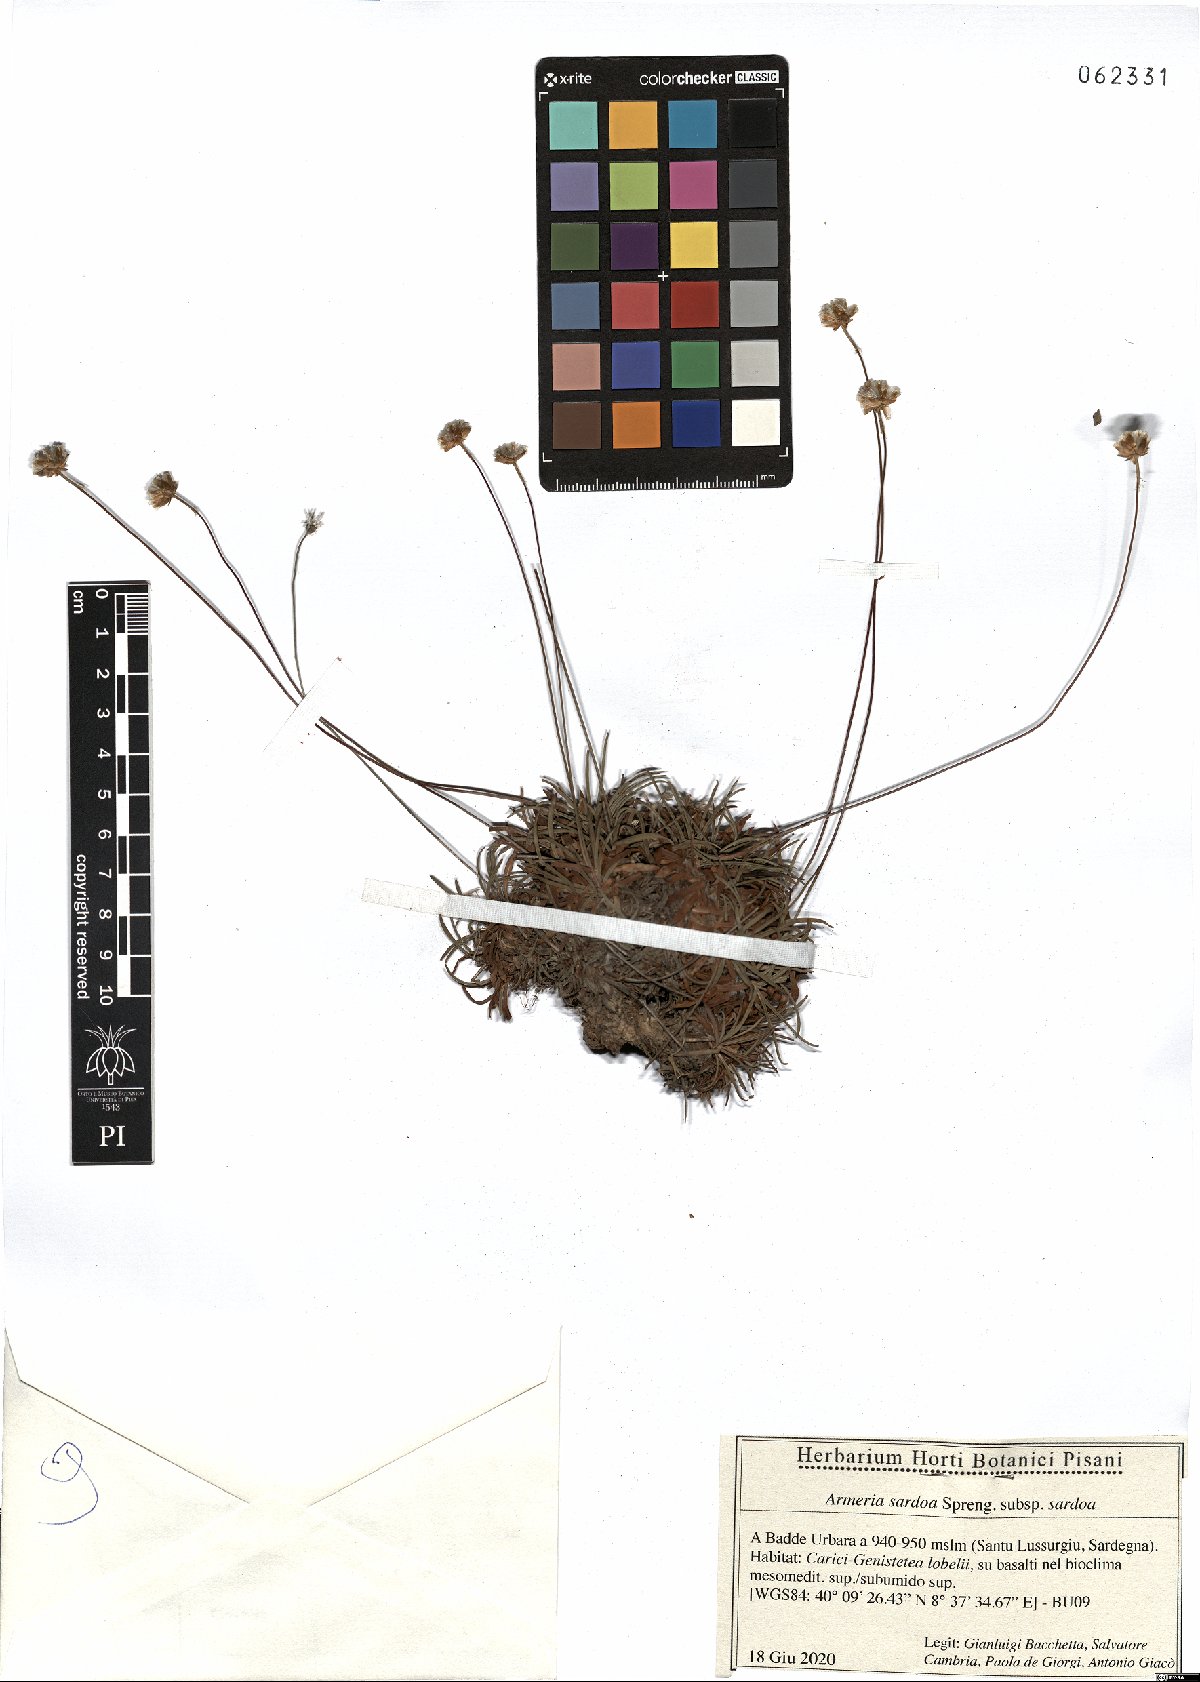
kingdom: Plantae
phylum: Tracheophyta
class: Magnoliopsida
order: Caryophyllales
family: Plumbaginaceae
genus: Armeria
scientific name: Armeria sardoa
